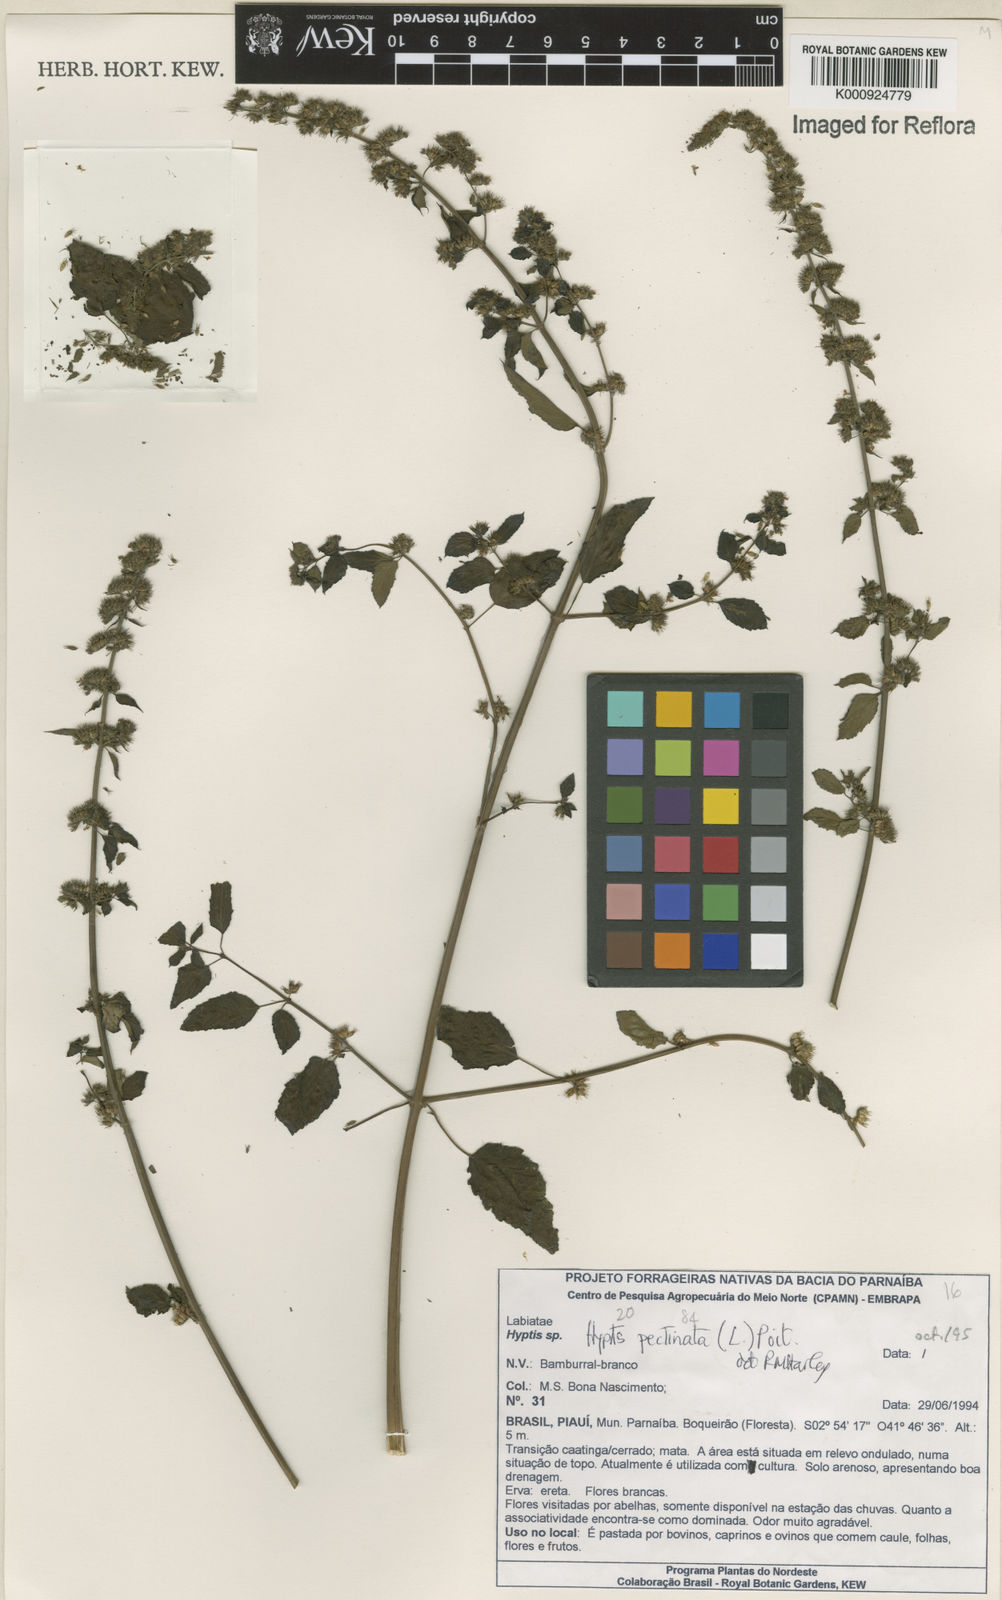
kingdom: Plantae
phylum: Tracheophyta
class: Magnoliopsida
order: Lamiales
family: Lamiaceae
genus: Mesosphaerum
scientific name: Mesosphaerum pectinatum
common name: Comb hyptis
